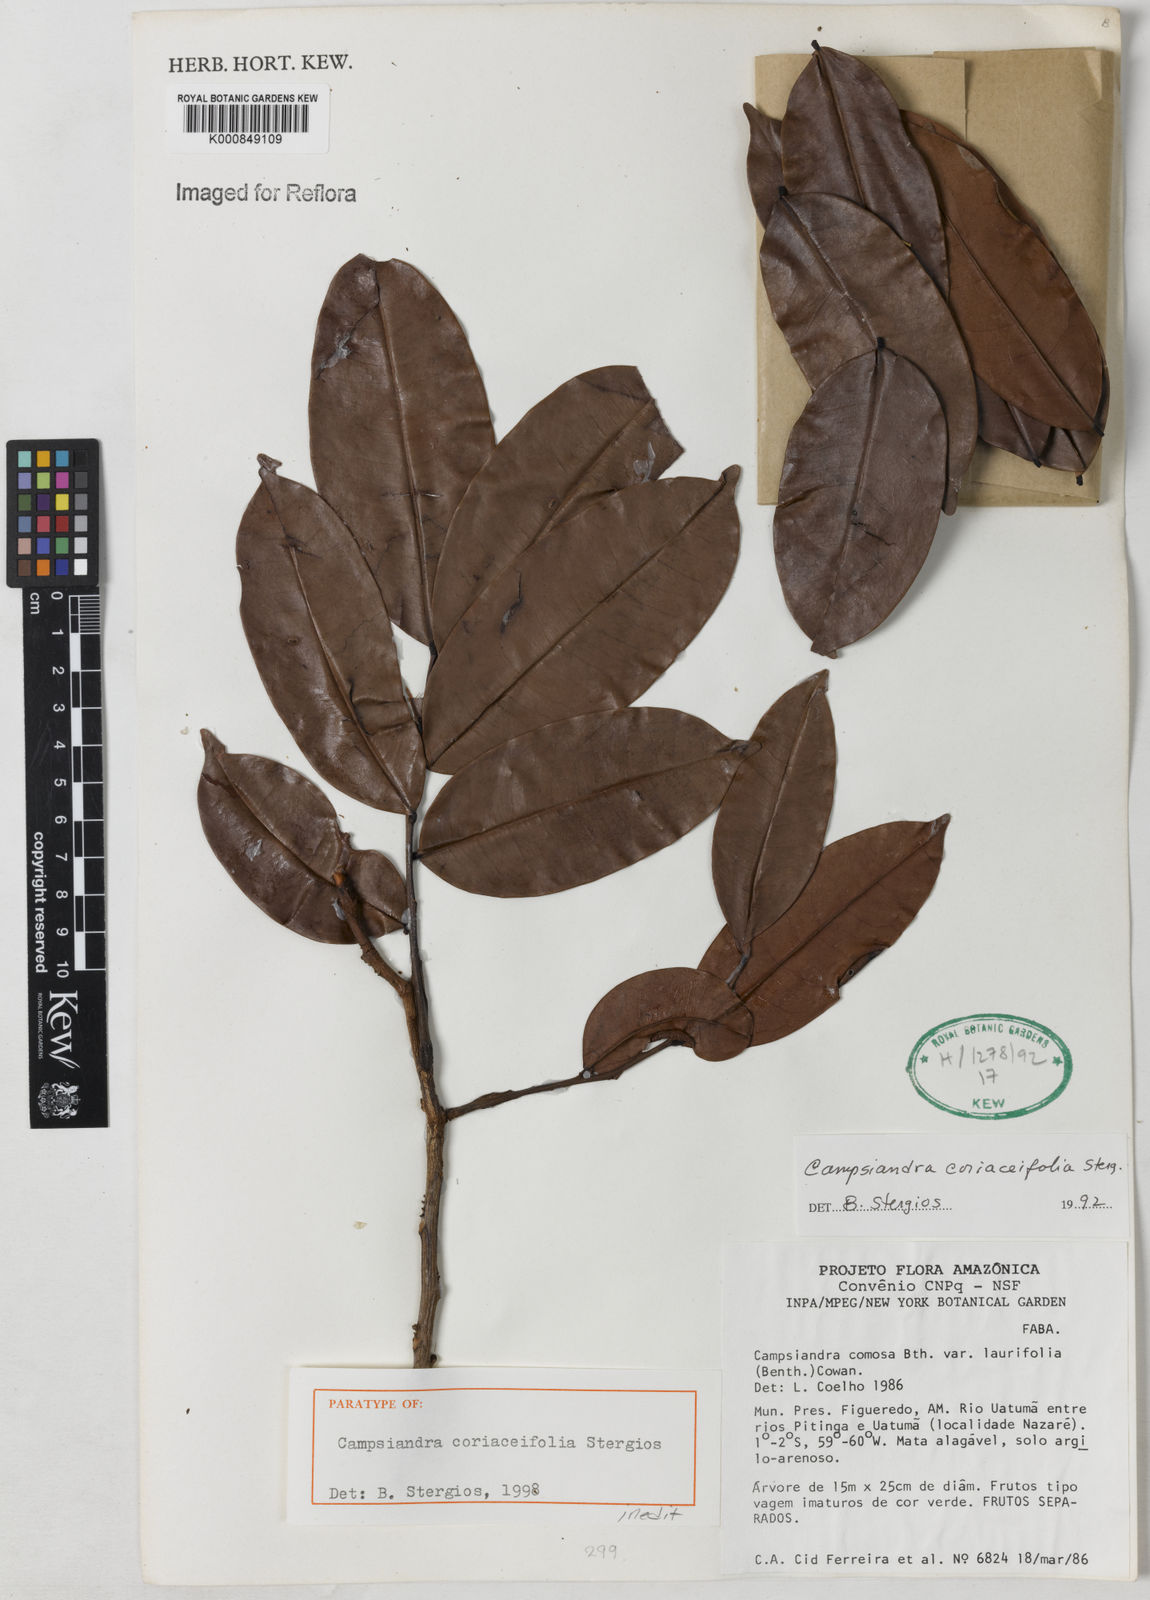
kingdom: Plantae
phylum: Tracheophyta
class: Magnoliopsida
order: Fabales
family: Fabaceae
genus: Campsiandra
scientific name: Campsiandra
